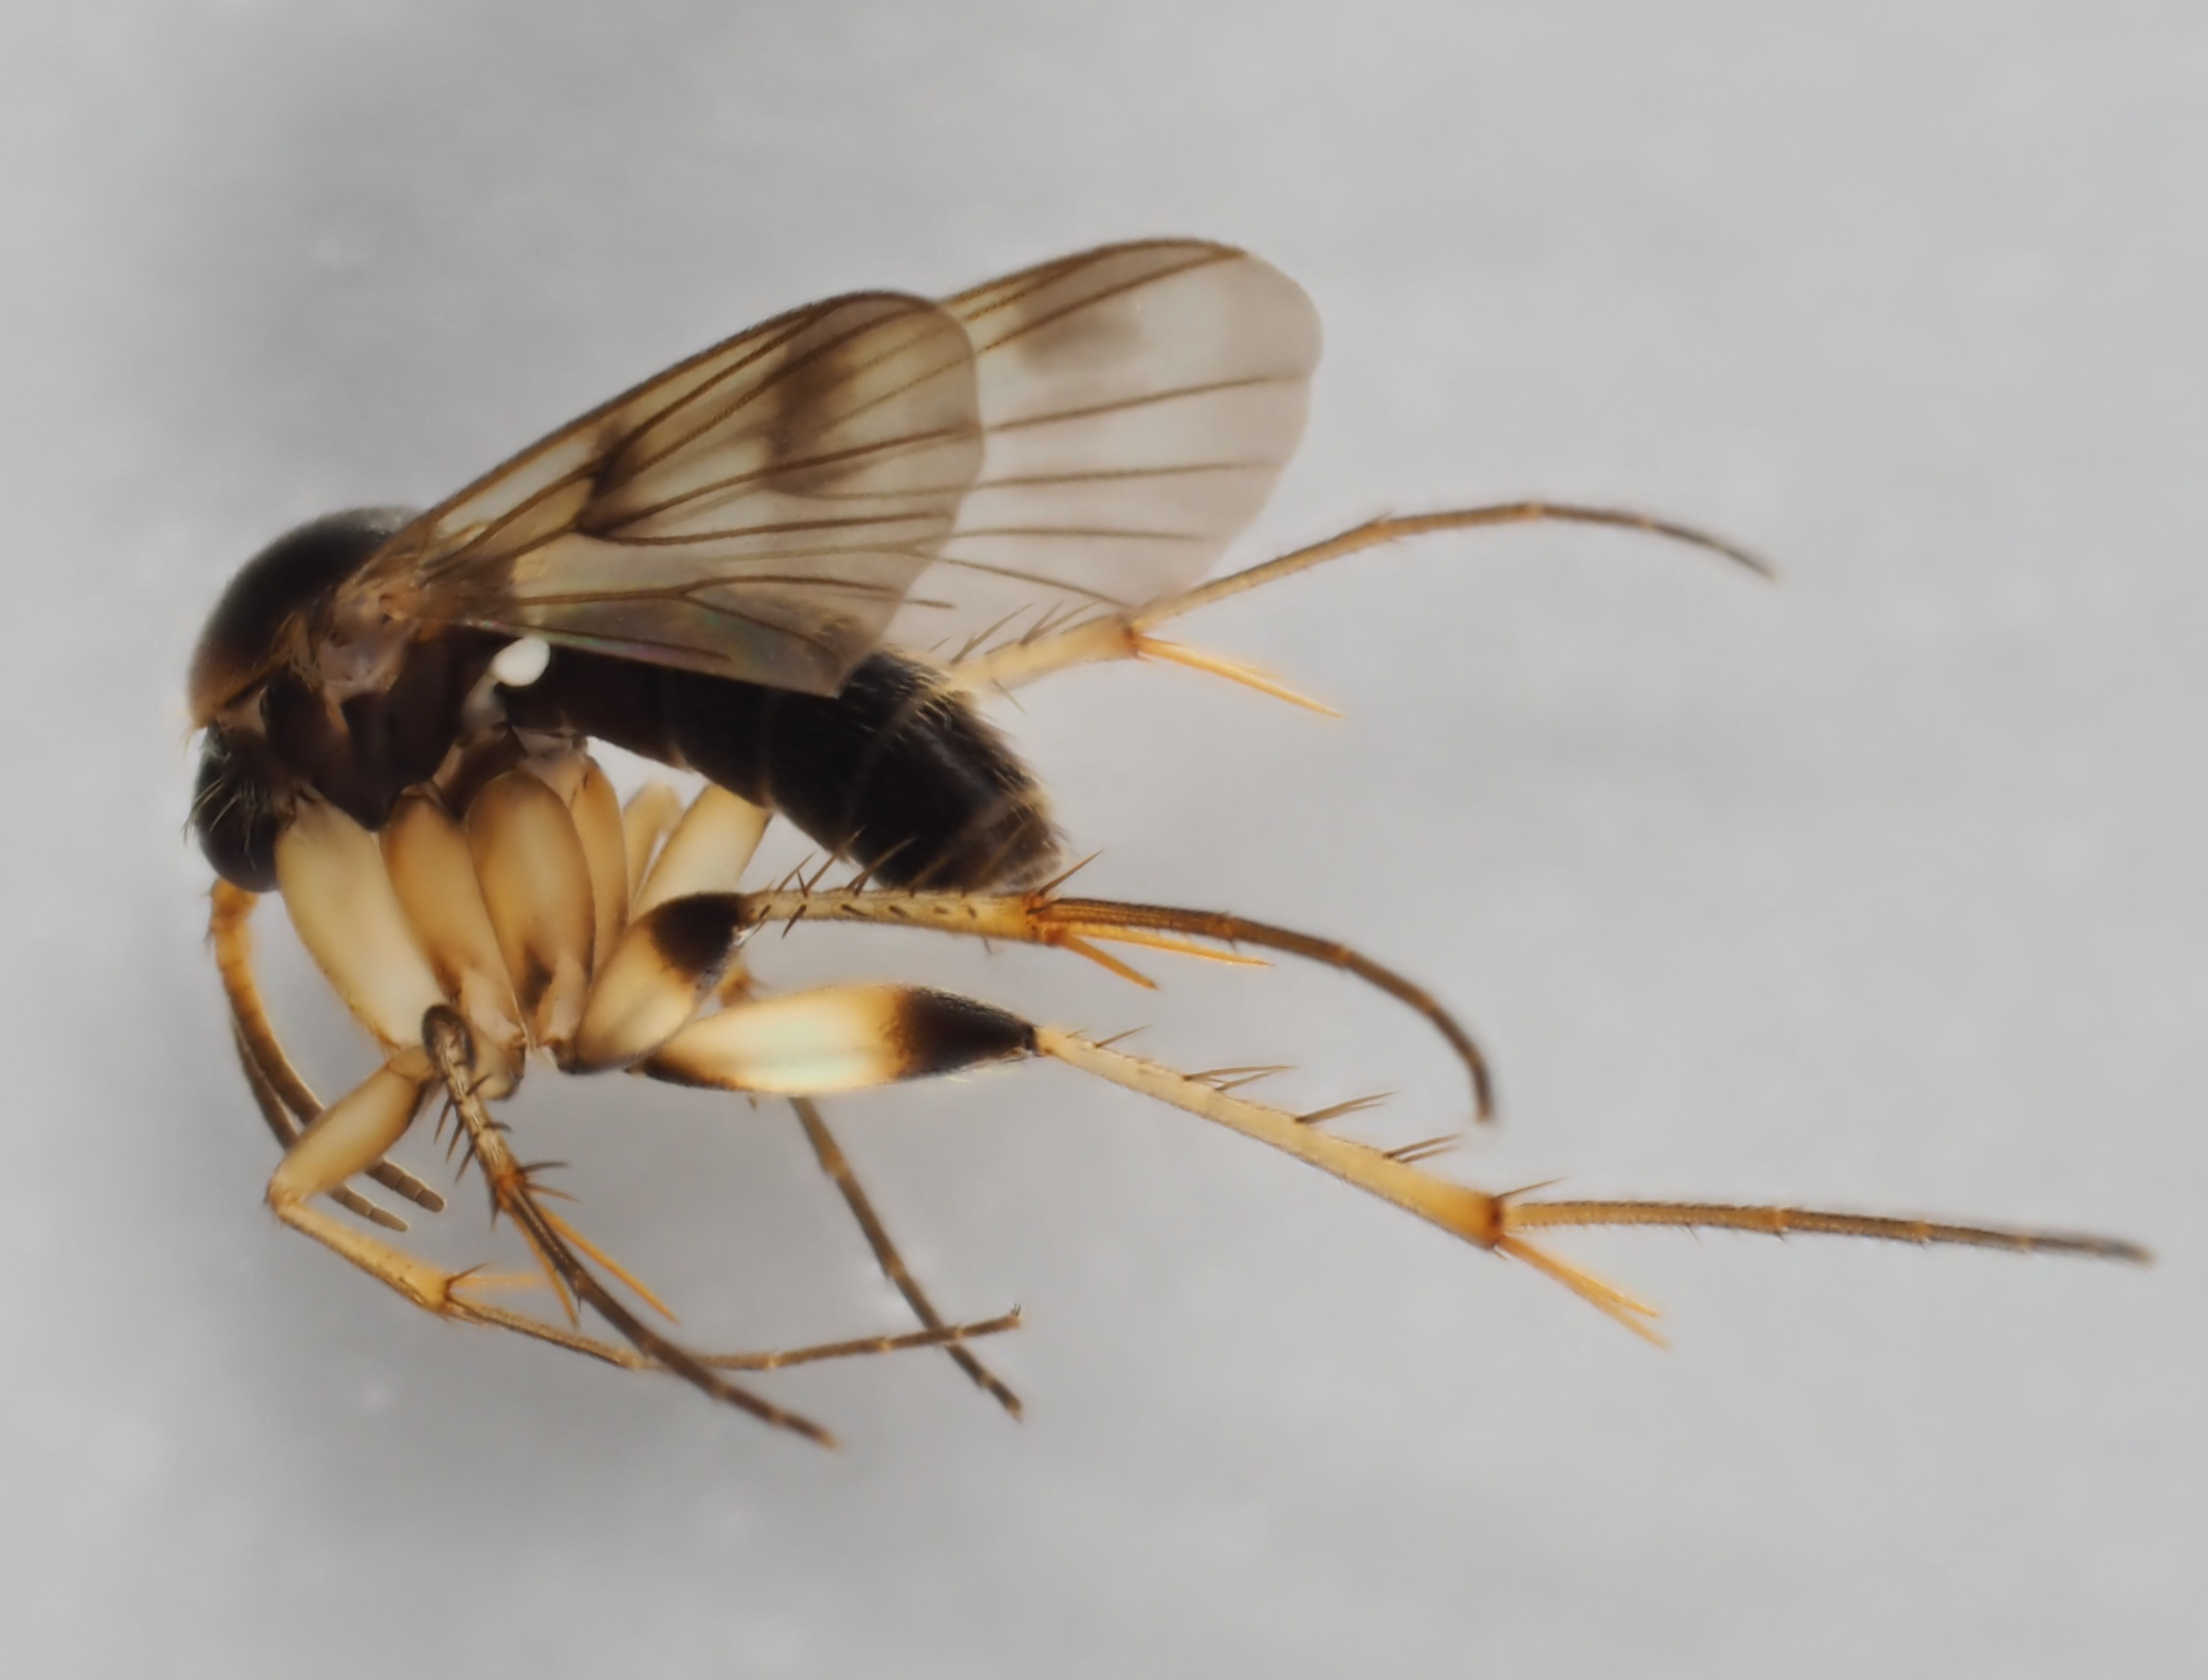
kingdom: Animalia
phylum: Arthropoda
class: Insecta
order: Diptera
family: Mycetophilidae
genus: Dynatosoma
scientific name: Dynatosoma thoracicum
